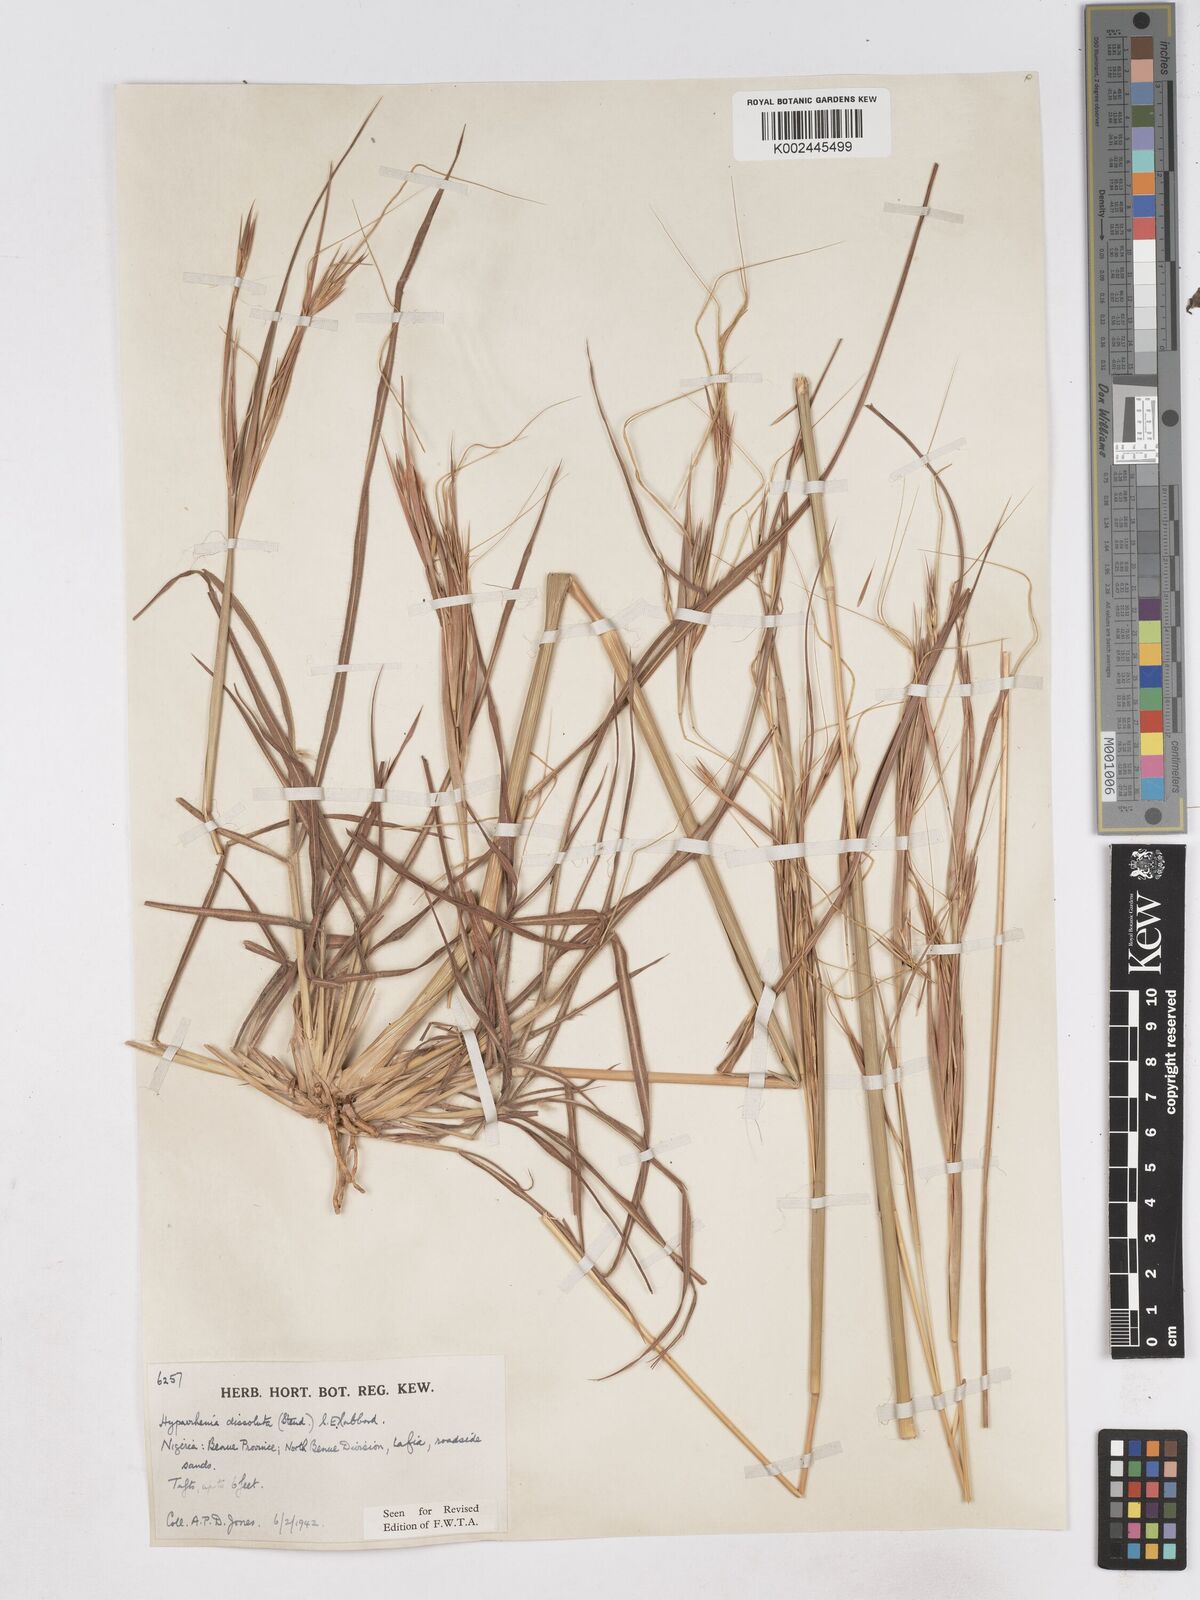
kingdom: Plantae
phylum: Tracheophyta
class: Liliopsida
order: Poales
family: Poaceae
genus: Hyperthelia
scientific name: Hyperthelia dissoluta
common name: Yellow thatching grass
